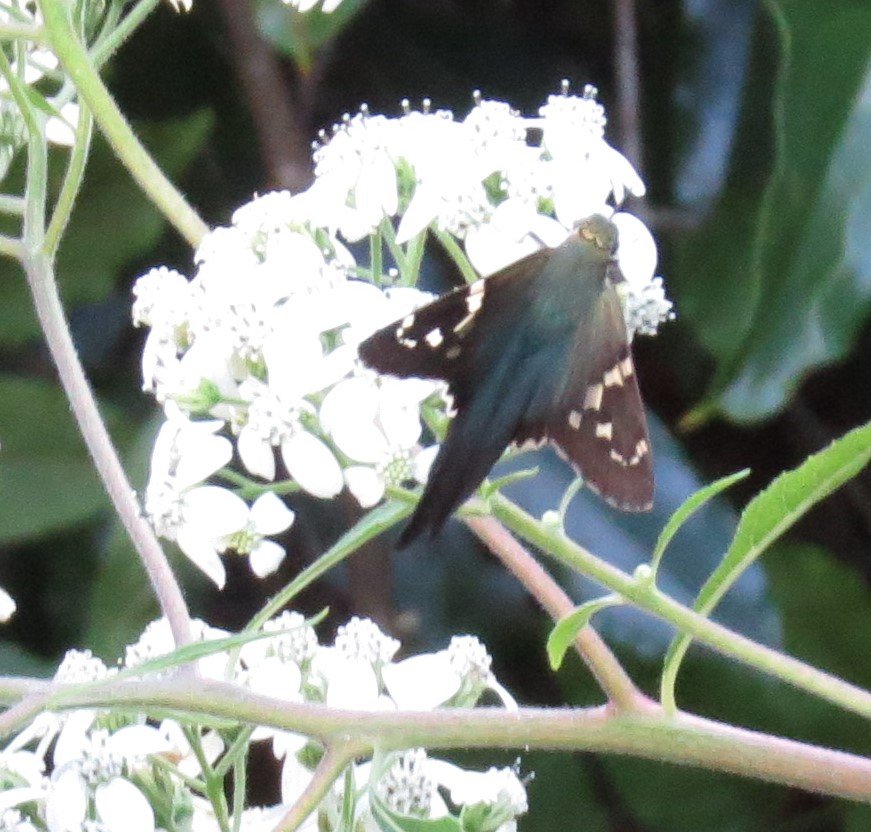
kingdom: Animalia
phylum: Arthropoda
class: Insecta
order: Lepidoptera
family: Hesperiidae
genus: Urbanus
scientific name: Urbanus proteus
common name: Long-tailed Skipper
